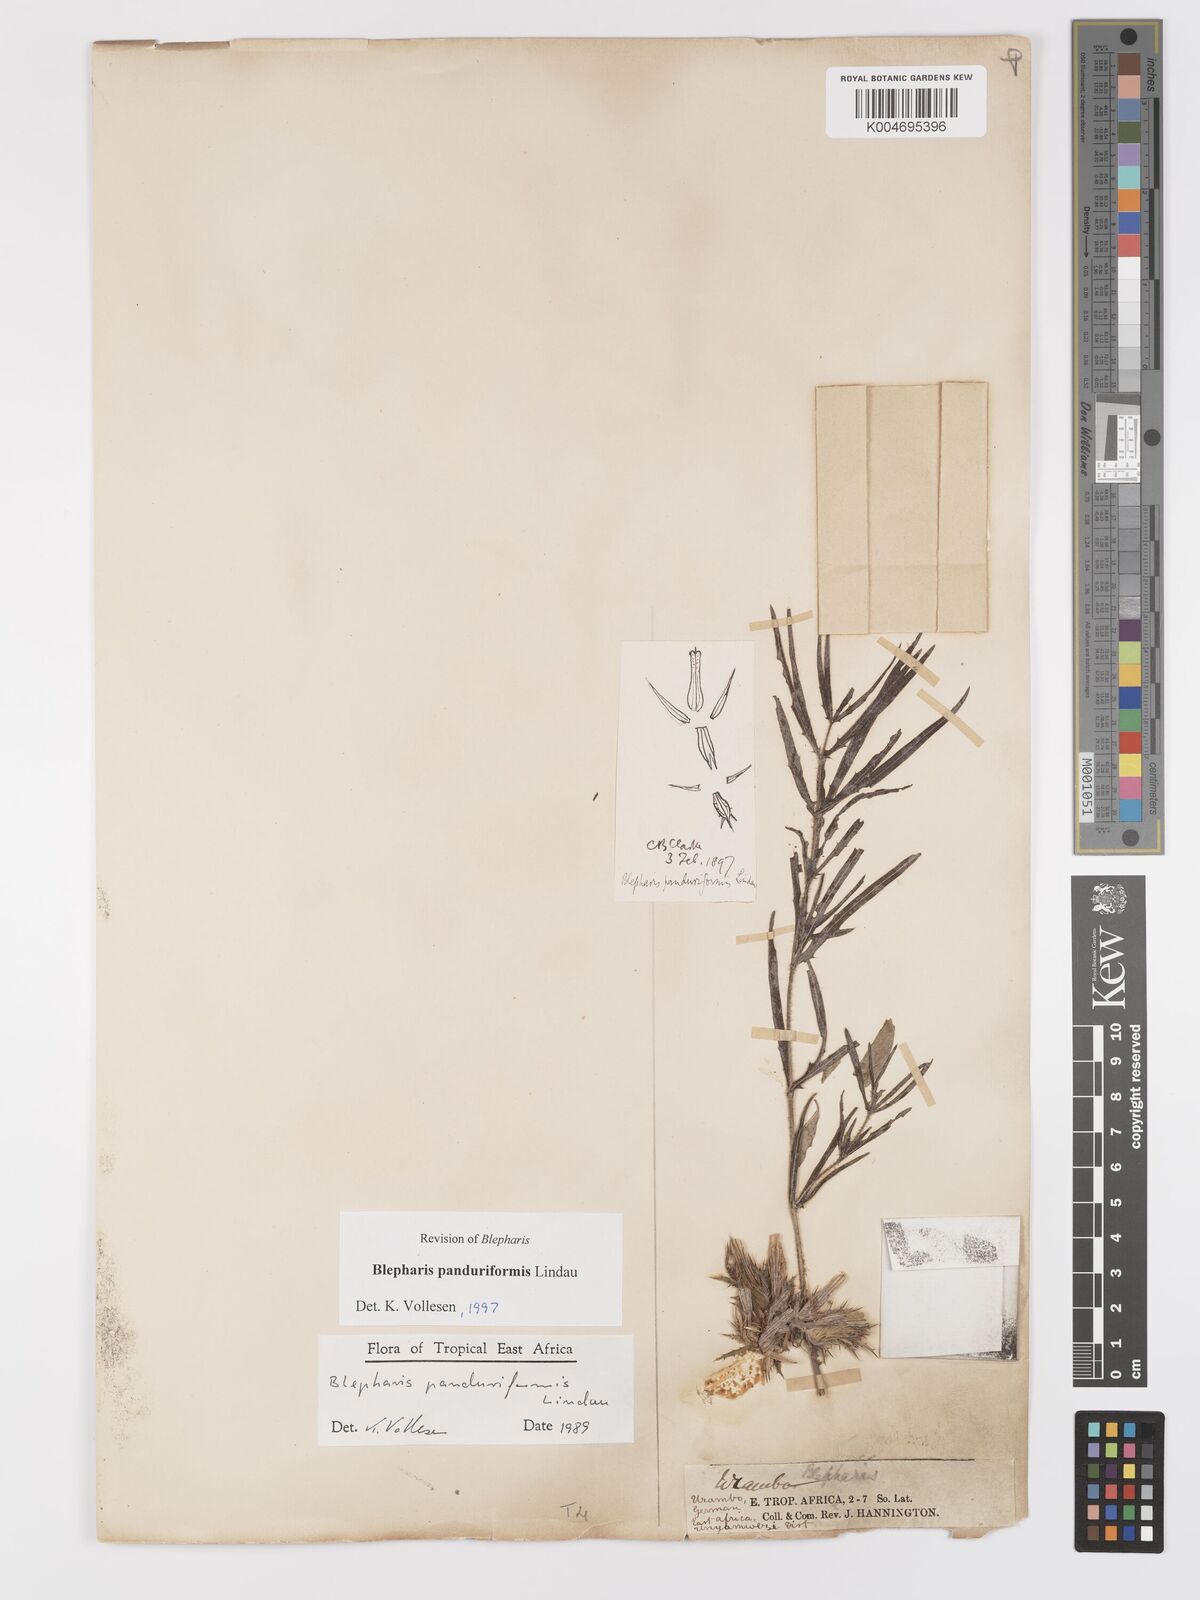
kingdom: Plantae
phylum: Tracheophyta
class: Magnoliopsida
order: Lamiales
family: Acanthaceae
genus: Blepharis
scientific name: Blepharis panduriformis
